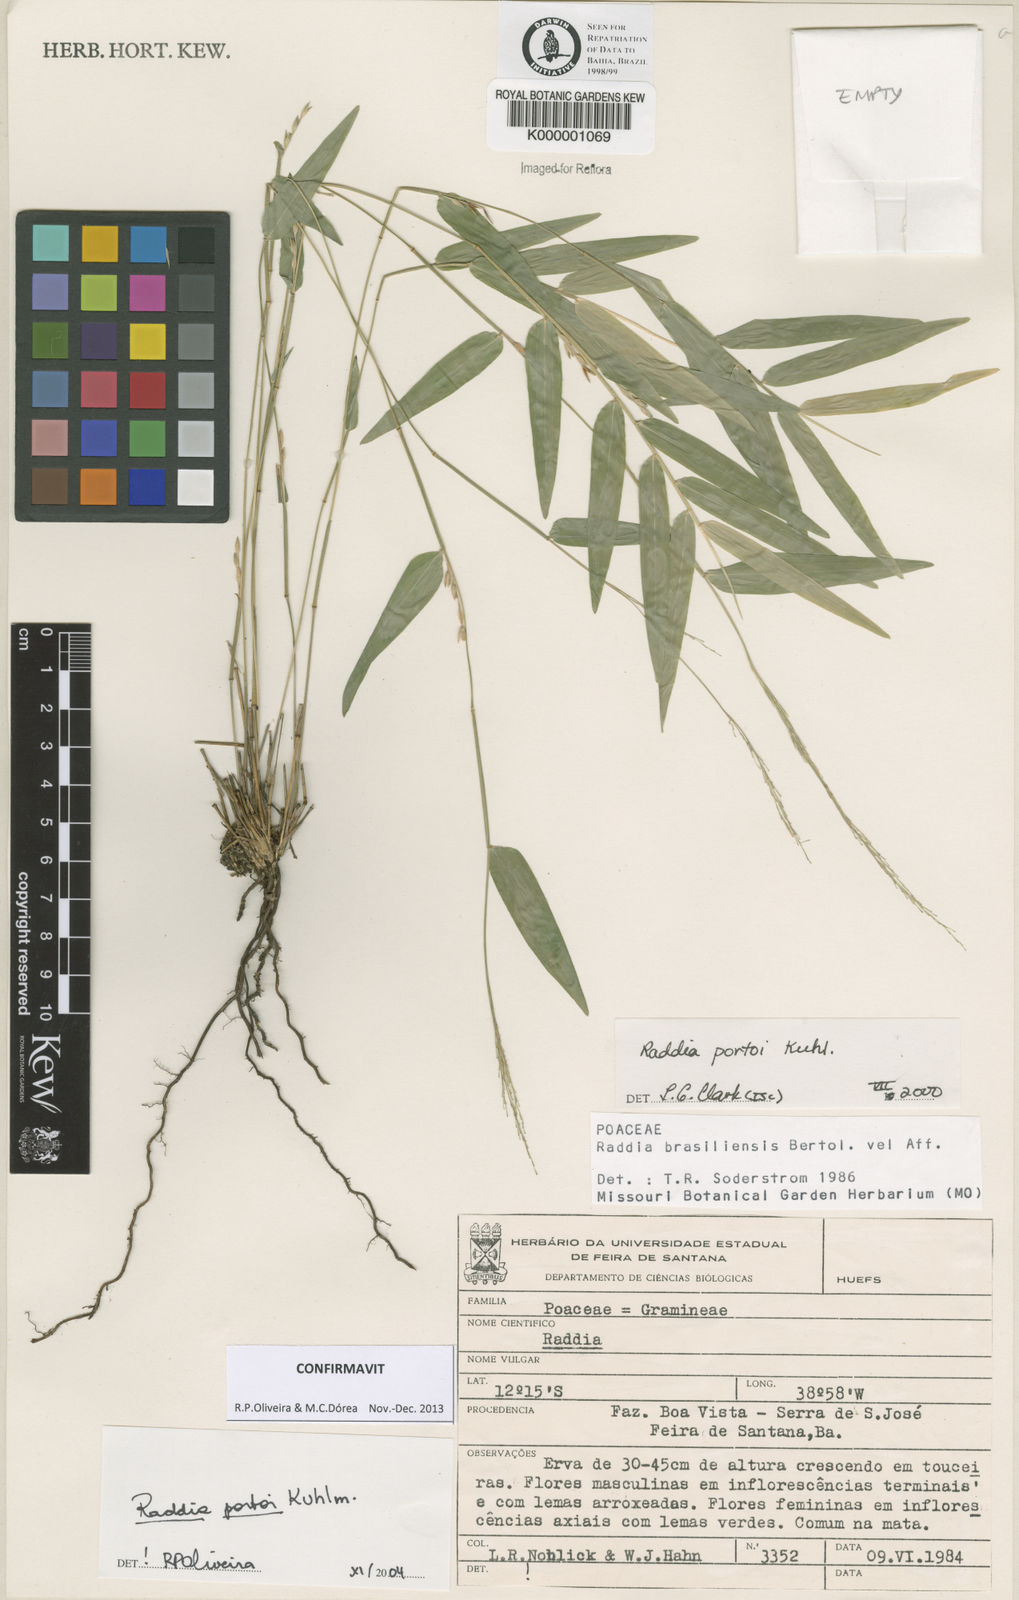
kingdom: Plantae
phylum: Tracheophyta
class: Liliopsida
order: Poales
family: Poaceae
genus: Raddia
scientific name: Raddia brasiliensis
